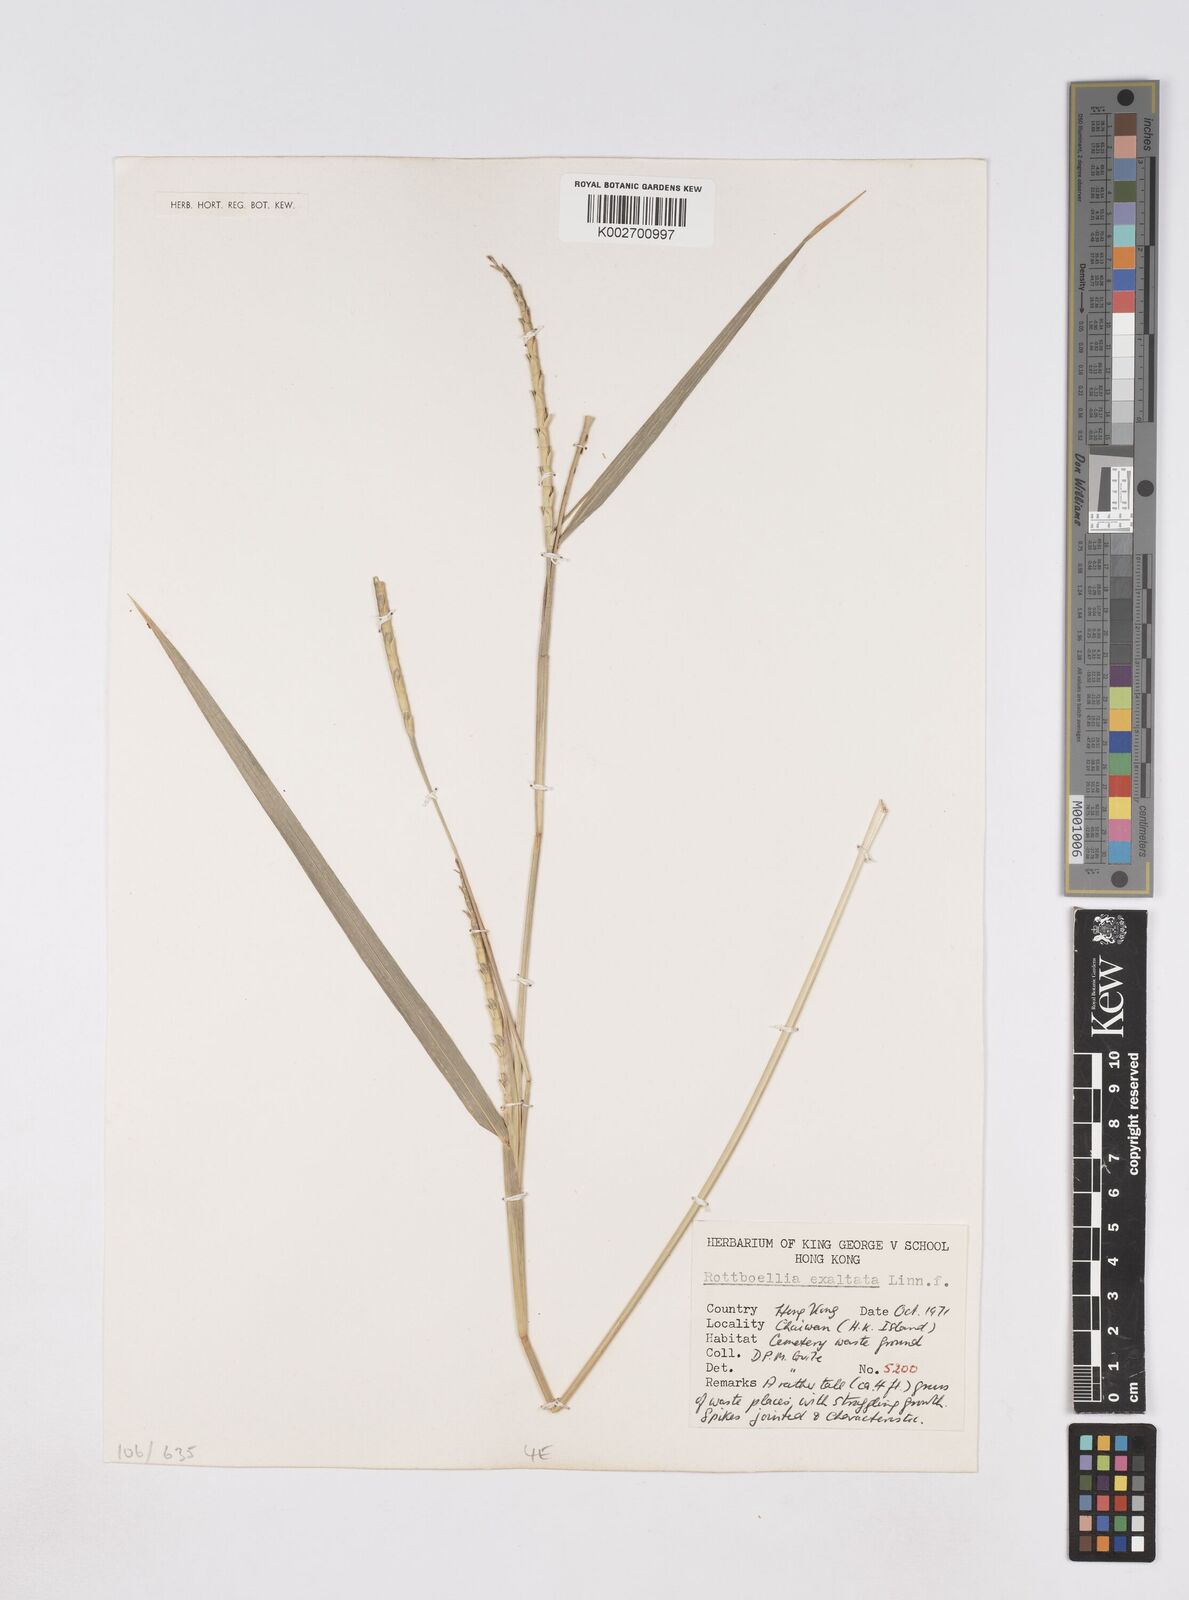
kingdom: Plantae
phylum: Tracheophyta
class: Liliopsida
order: Poales
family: Poaceae
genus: Rottboellia
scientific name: Rottboellia cochinchinensis
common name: Itchgrass
